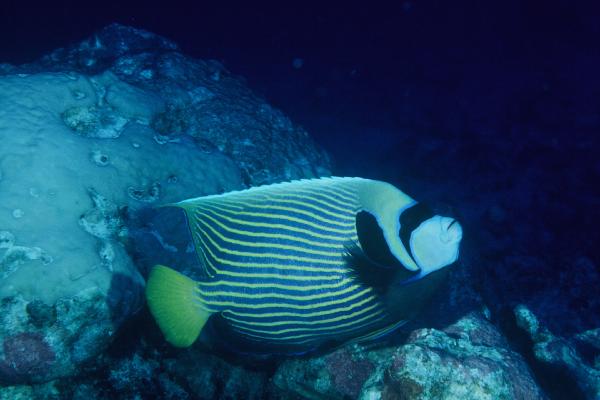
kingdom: Animalia
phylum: Chordata
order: Perciformes
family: Pomacanthidae
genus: Pomacanthus
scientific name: Pomacanthus imperator
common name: Emperor angelfish
